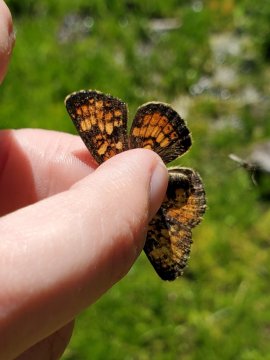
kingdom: Animalia
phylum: Arthropoda
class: Insecta
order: Lepidoptera
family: Nymphalidae
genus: Phyciodes
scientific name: Phyciodes tharos
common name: Field Crescent
